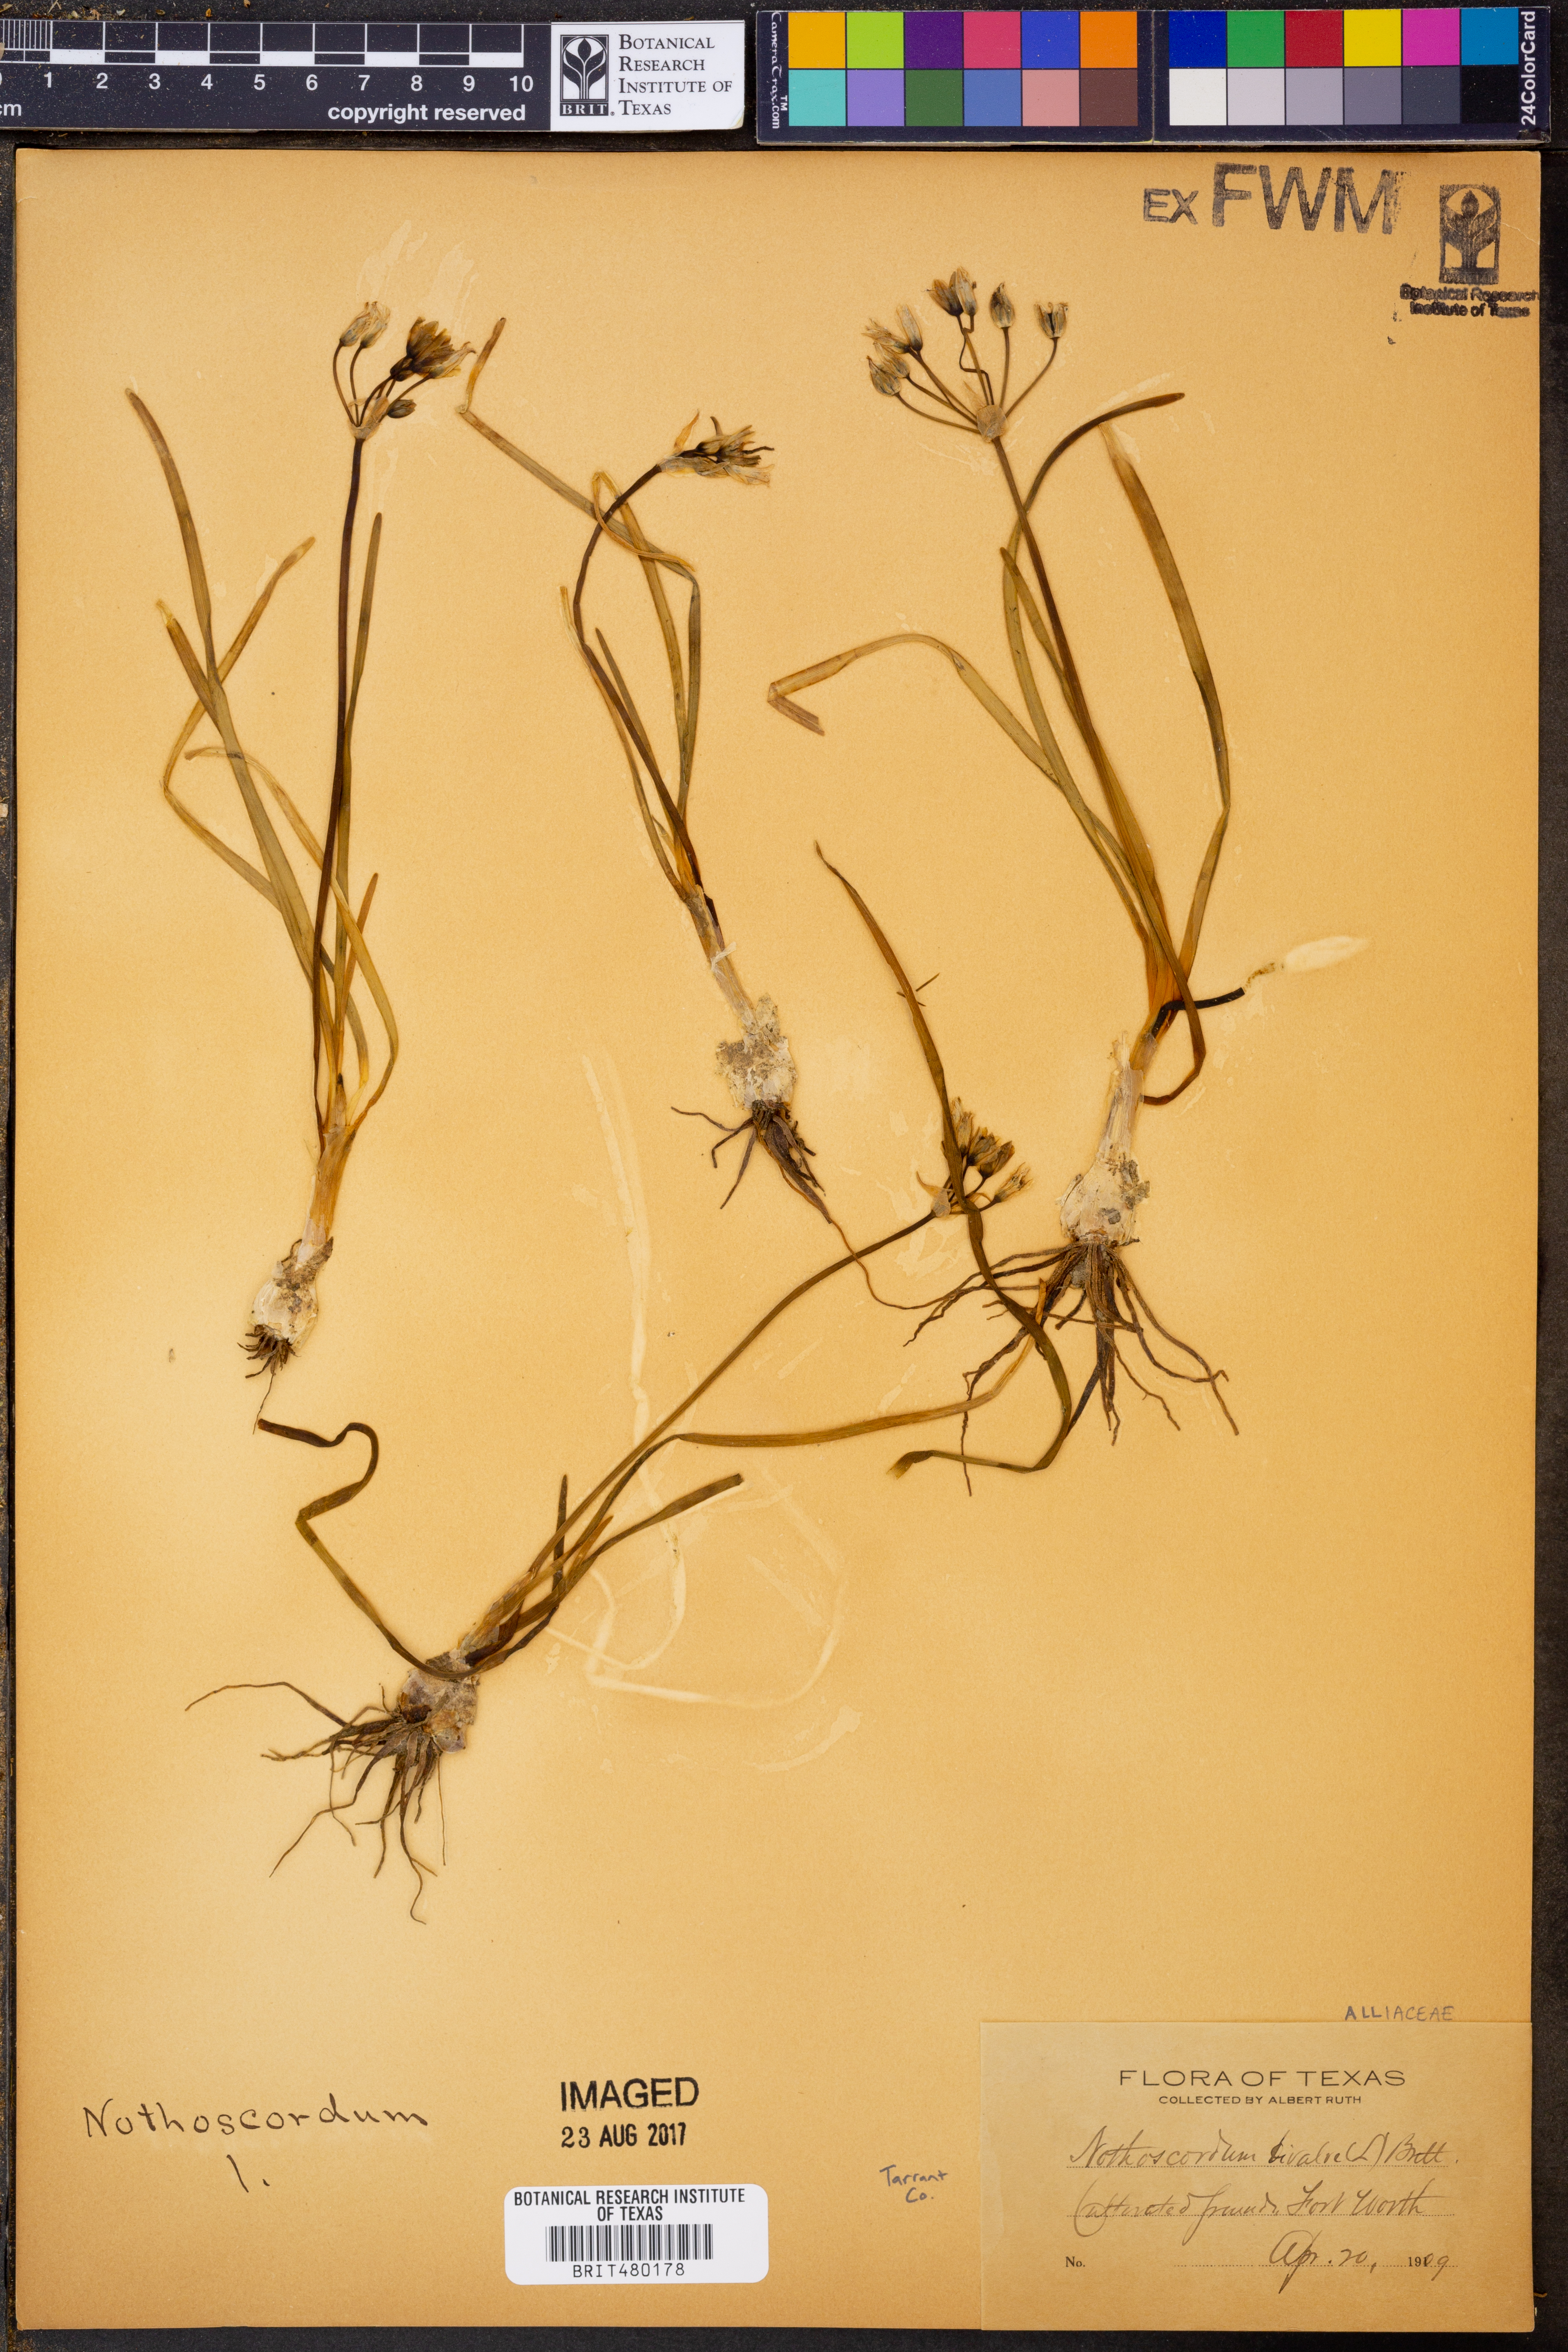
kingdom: Plantae
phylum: Tracheophyta
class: Liliopsida
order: Asparagales
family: Amaryllidaceae
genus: Nothoscordum
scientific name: Nothoscordum bivalve
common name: Crow-poison
